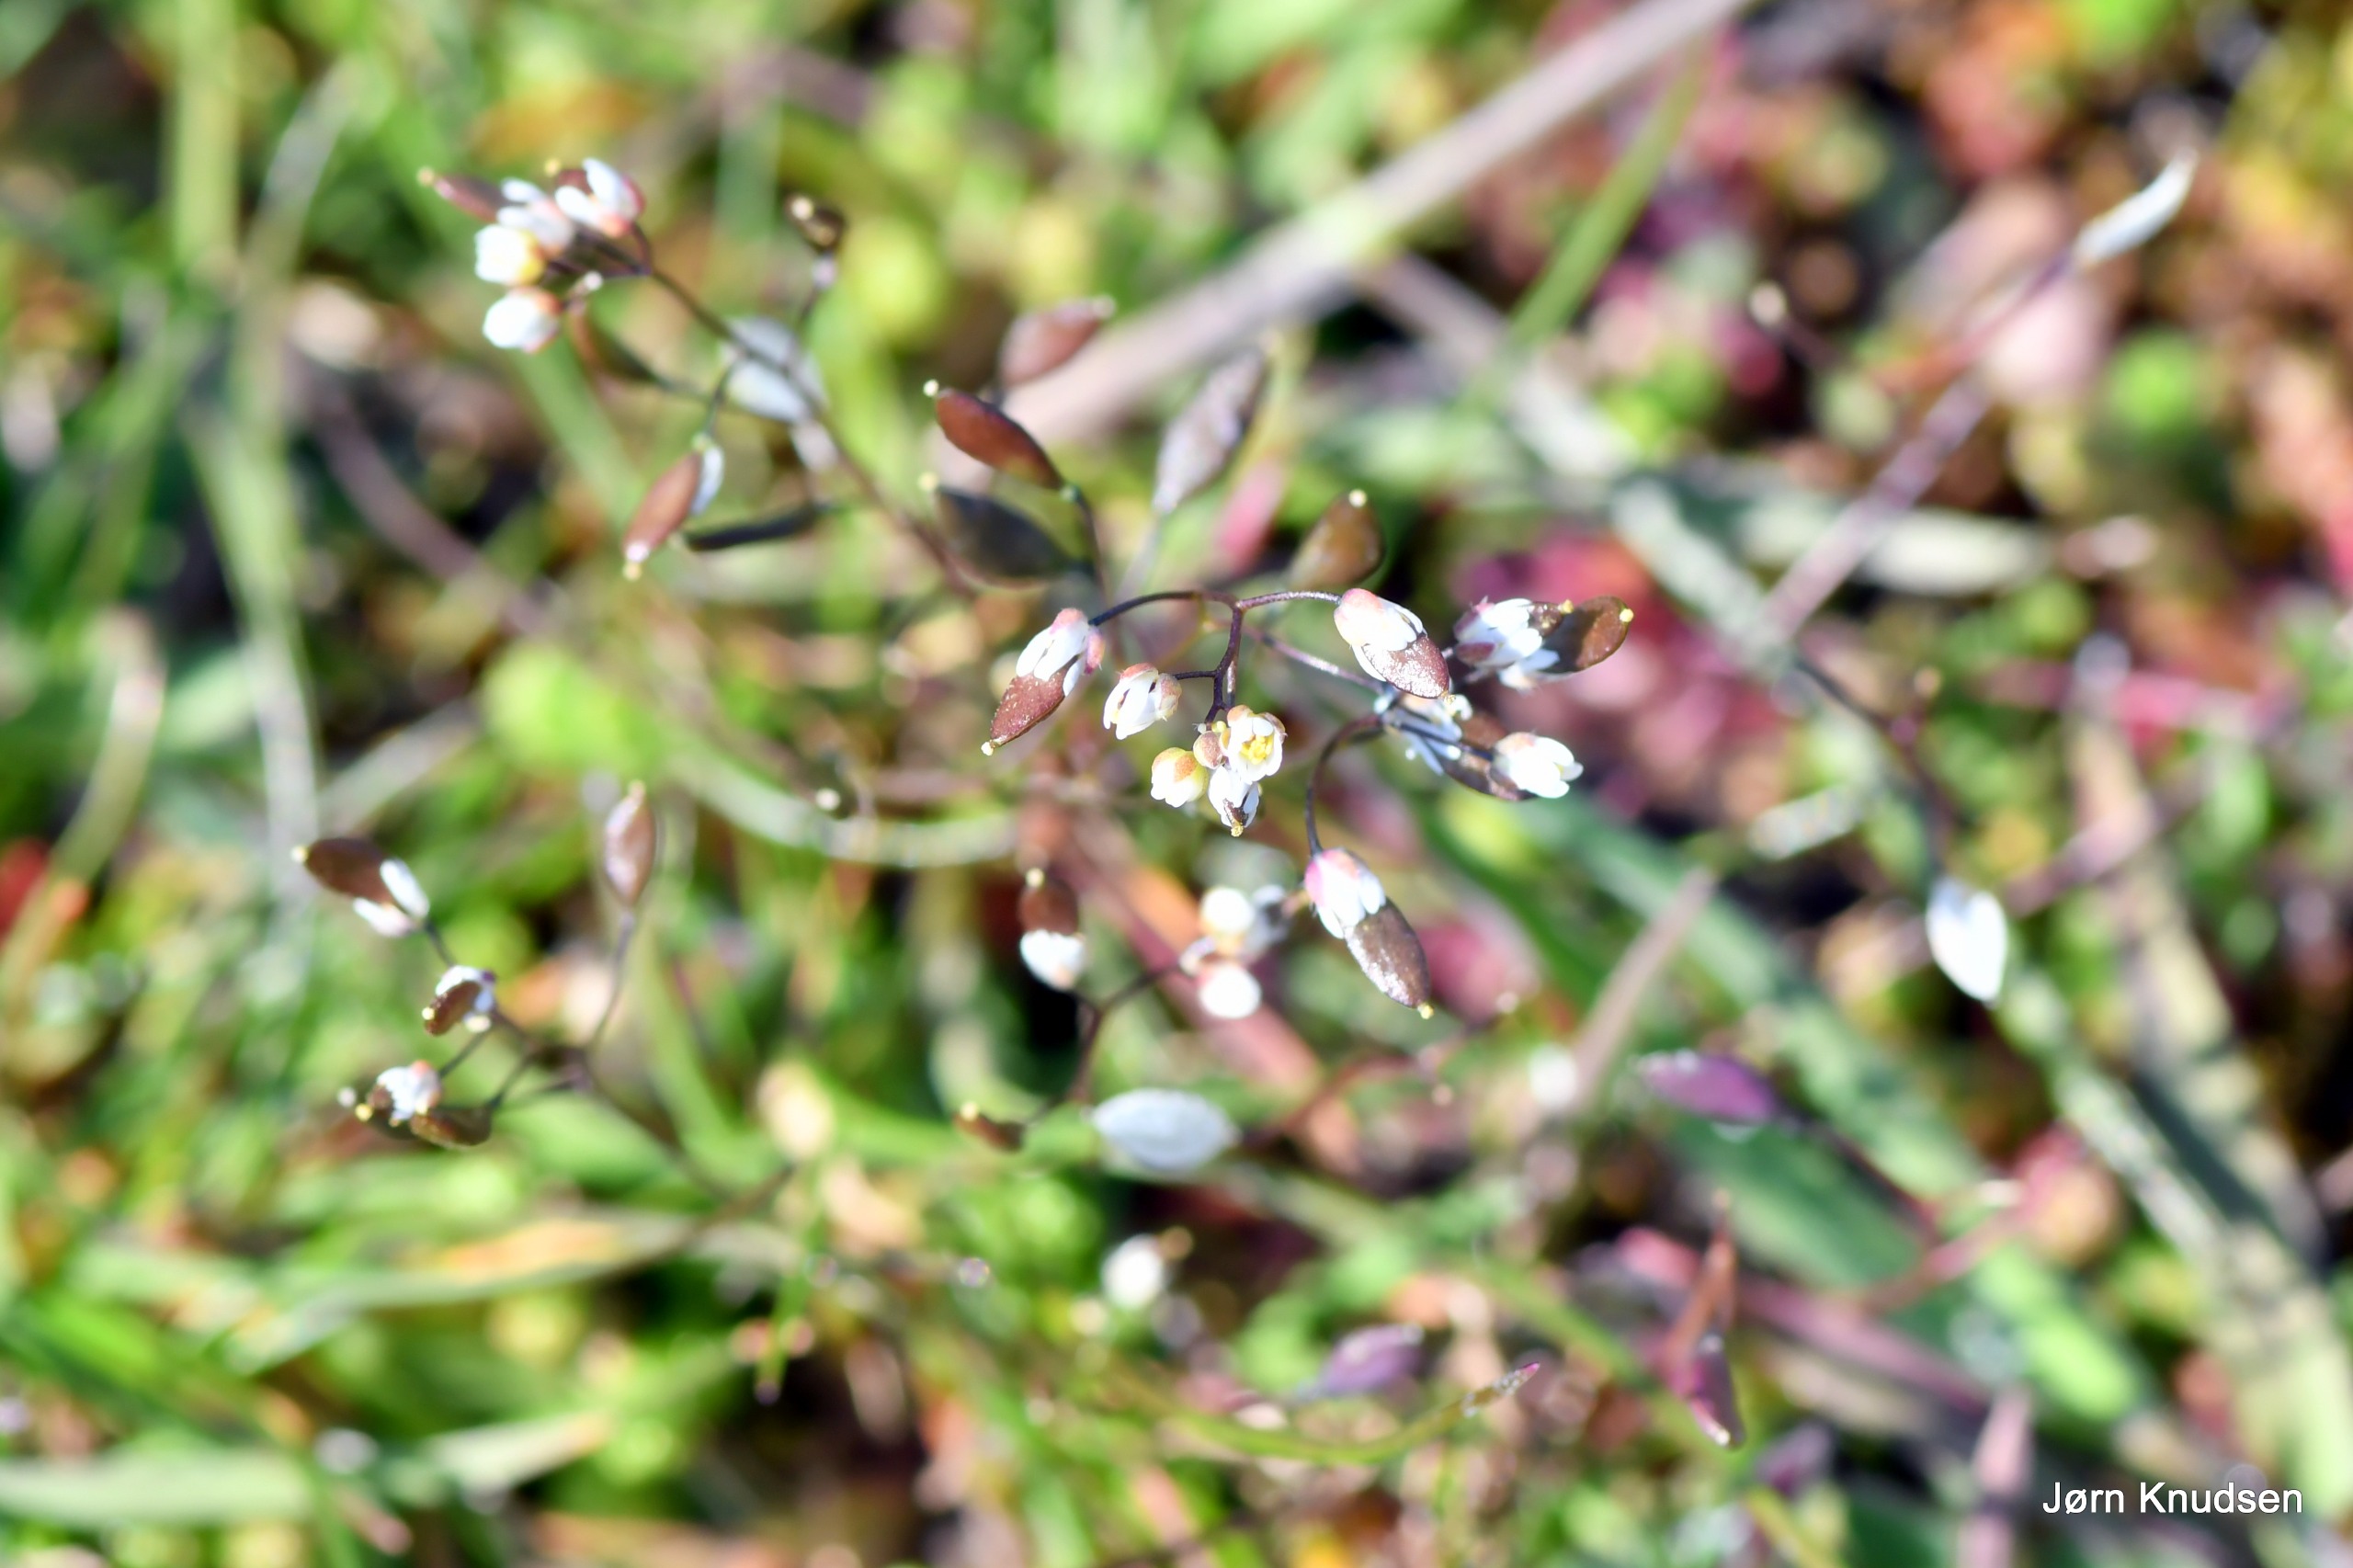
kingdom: Plantae
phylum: Tracheophyta
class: Magnoliopsida
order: Brassicales
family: Brassicaceae
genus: Draba
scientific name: Draba verna
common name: Vår-gæslingeblomst
